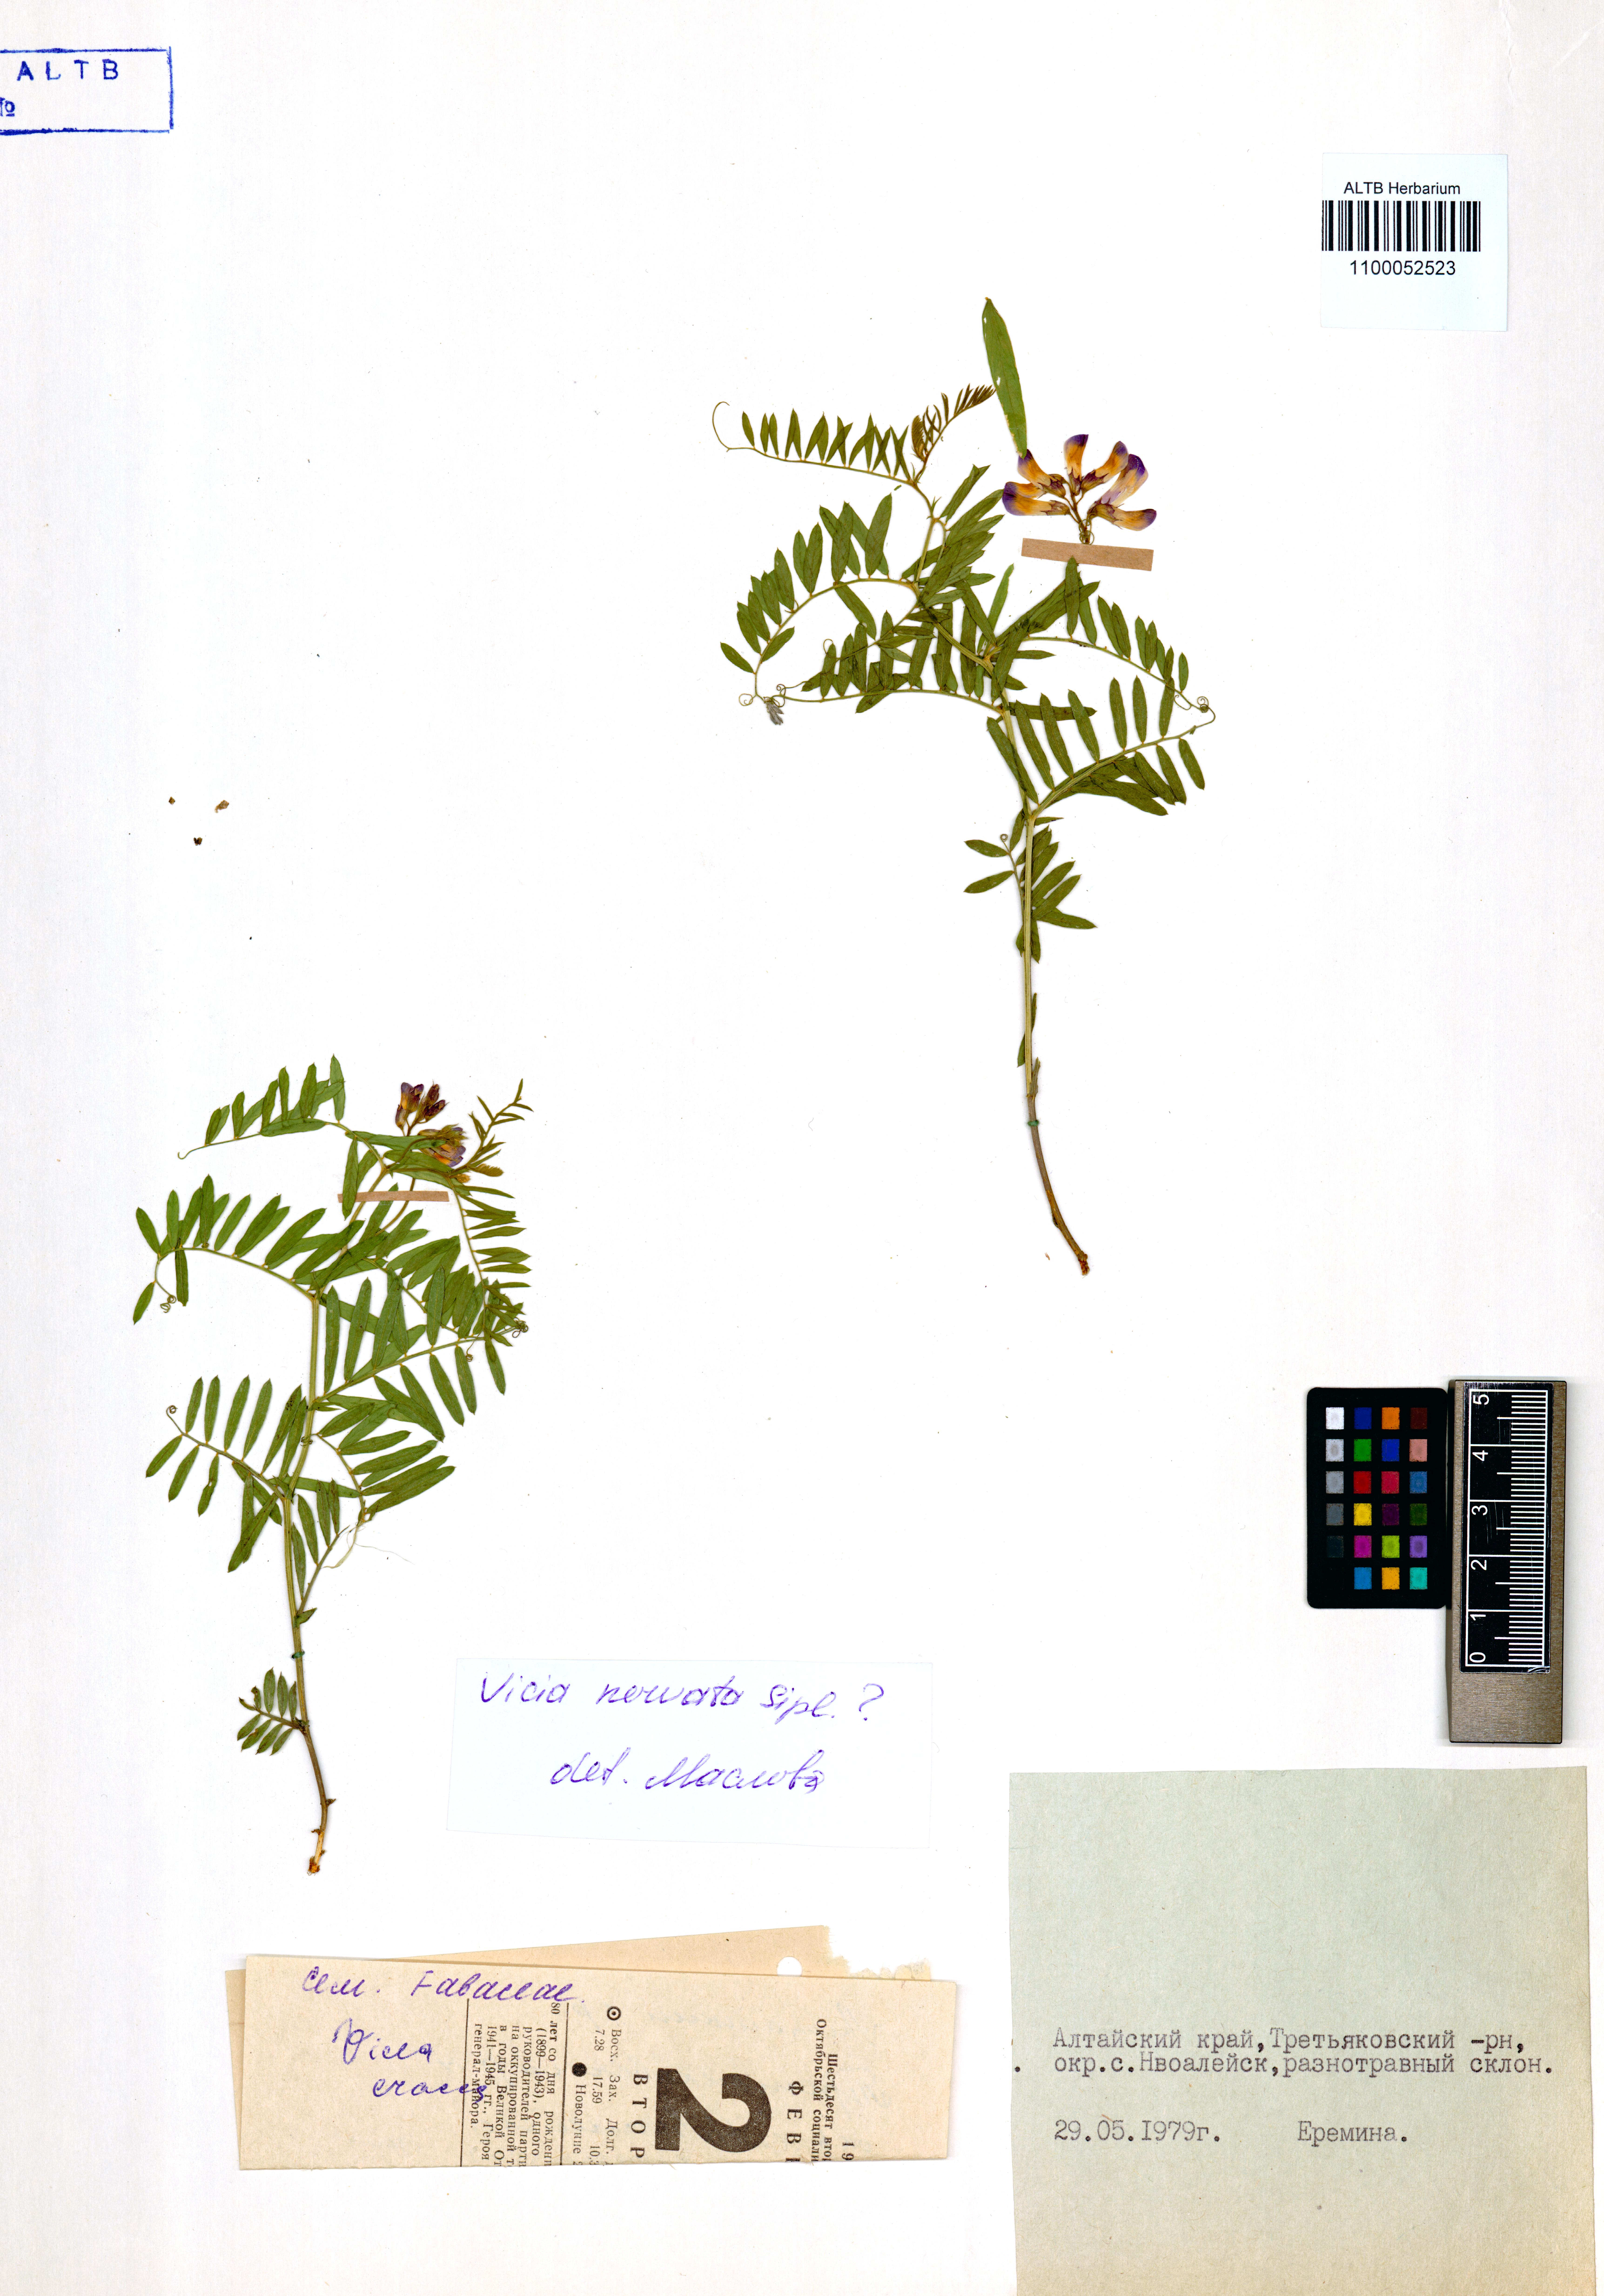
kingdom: Plantae
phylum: Tracheophyta
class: Magnoliopsida
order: Fabales
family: Fabaceae
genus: Vicia
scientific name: Vicia multicaulis
